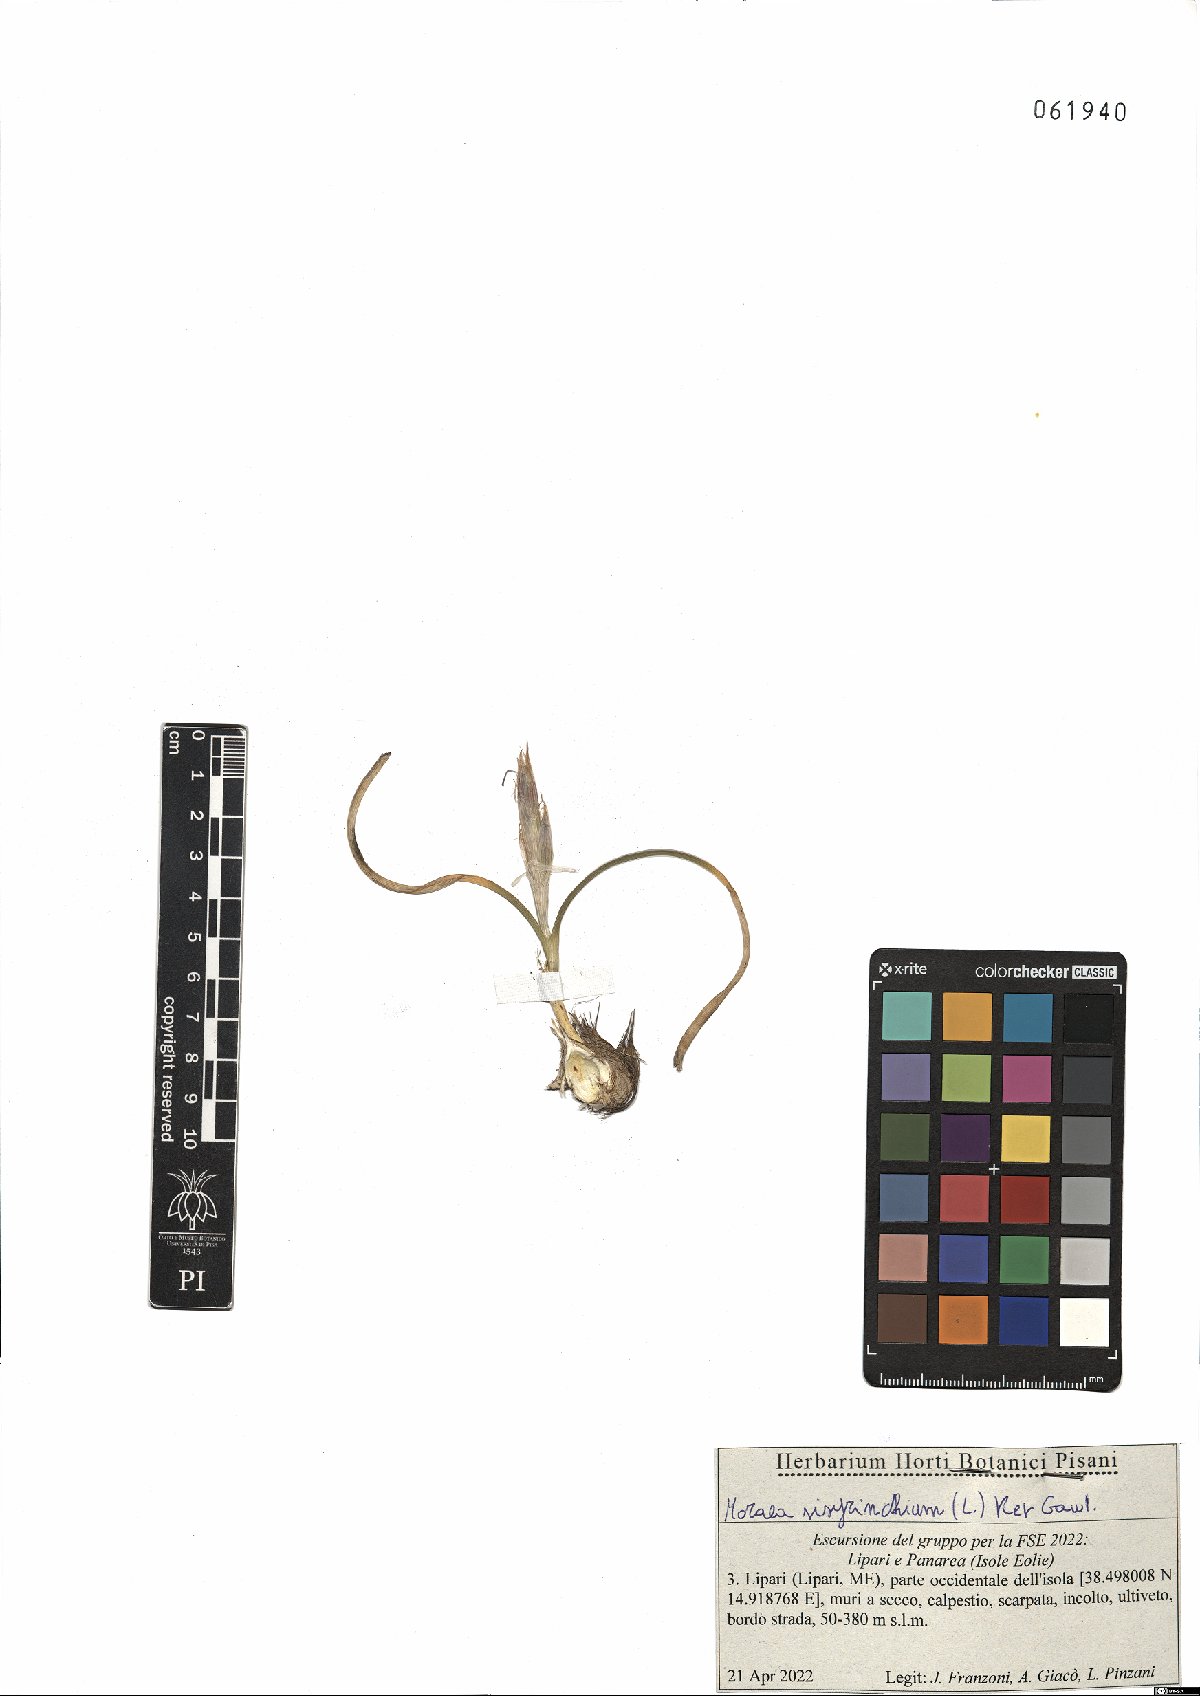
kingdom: Plantae
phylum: Tracheophyta
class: Liliopsida
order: Asparagales
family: Iridaceae
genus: Moraea
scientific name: Moraea sisyrinchium
